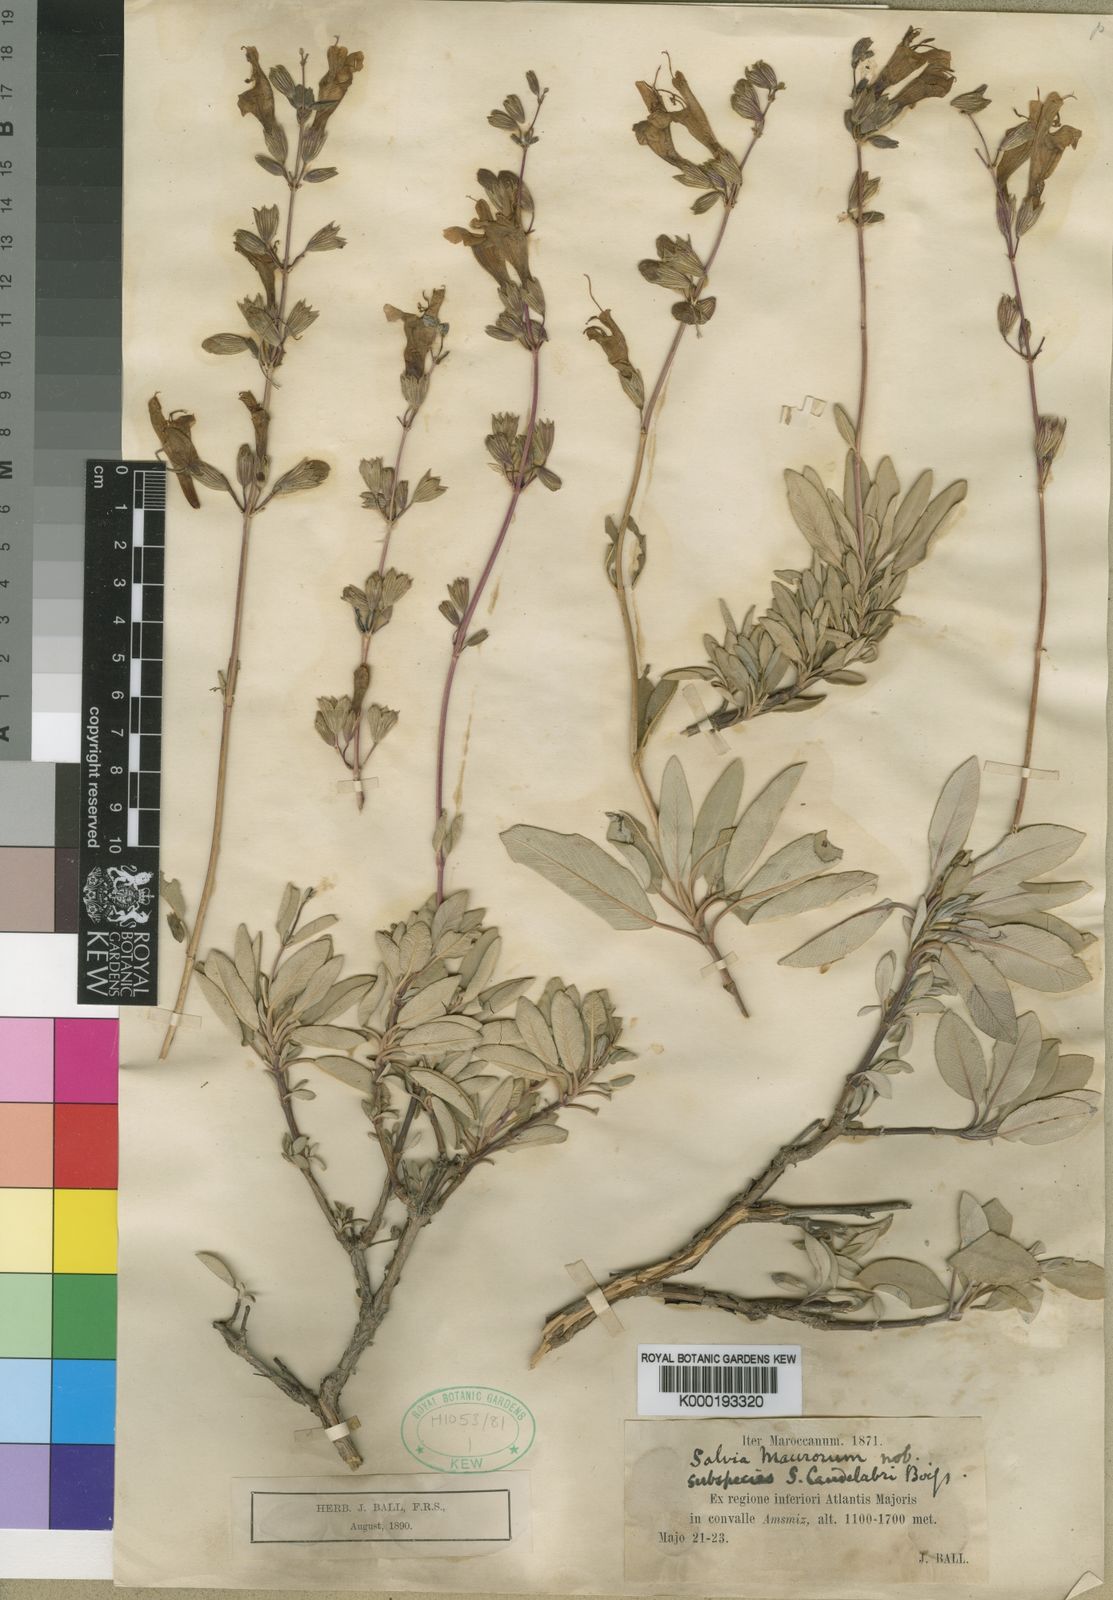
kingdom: Plantae
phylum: Tracheophyta
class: Magnoliopsida
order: Lamiales
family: Lamiaceae
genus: Salvia
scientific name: Salvia blancoana
